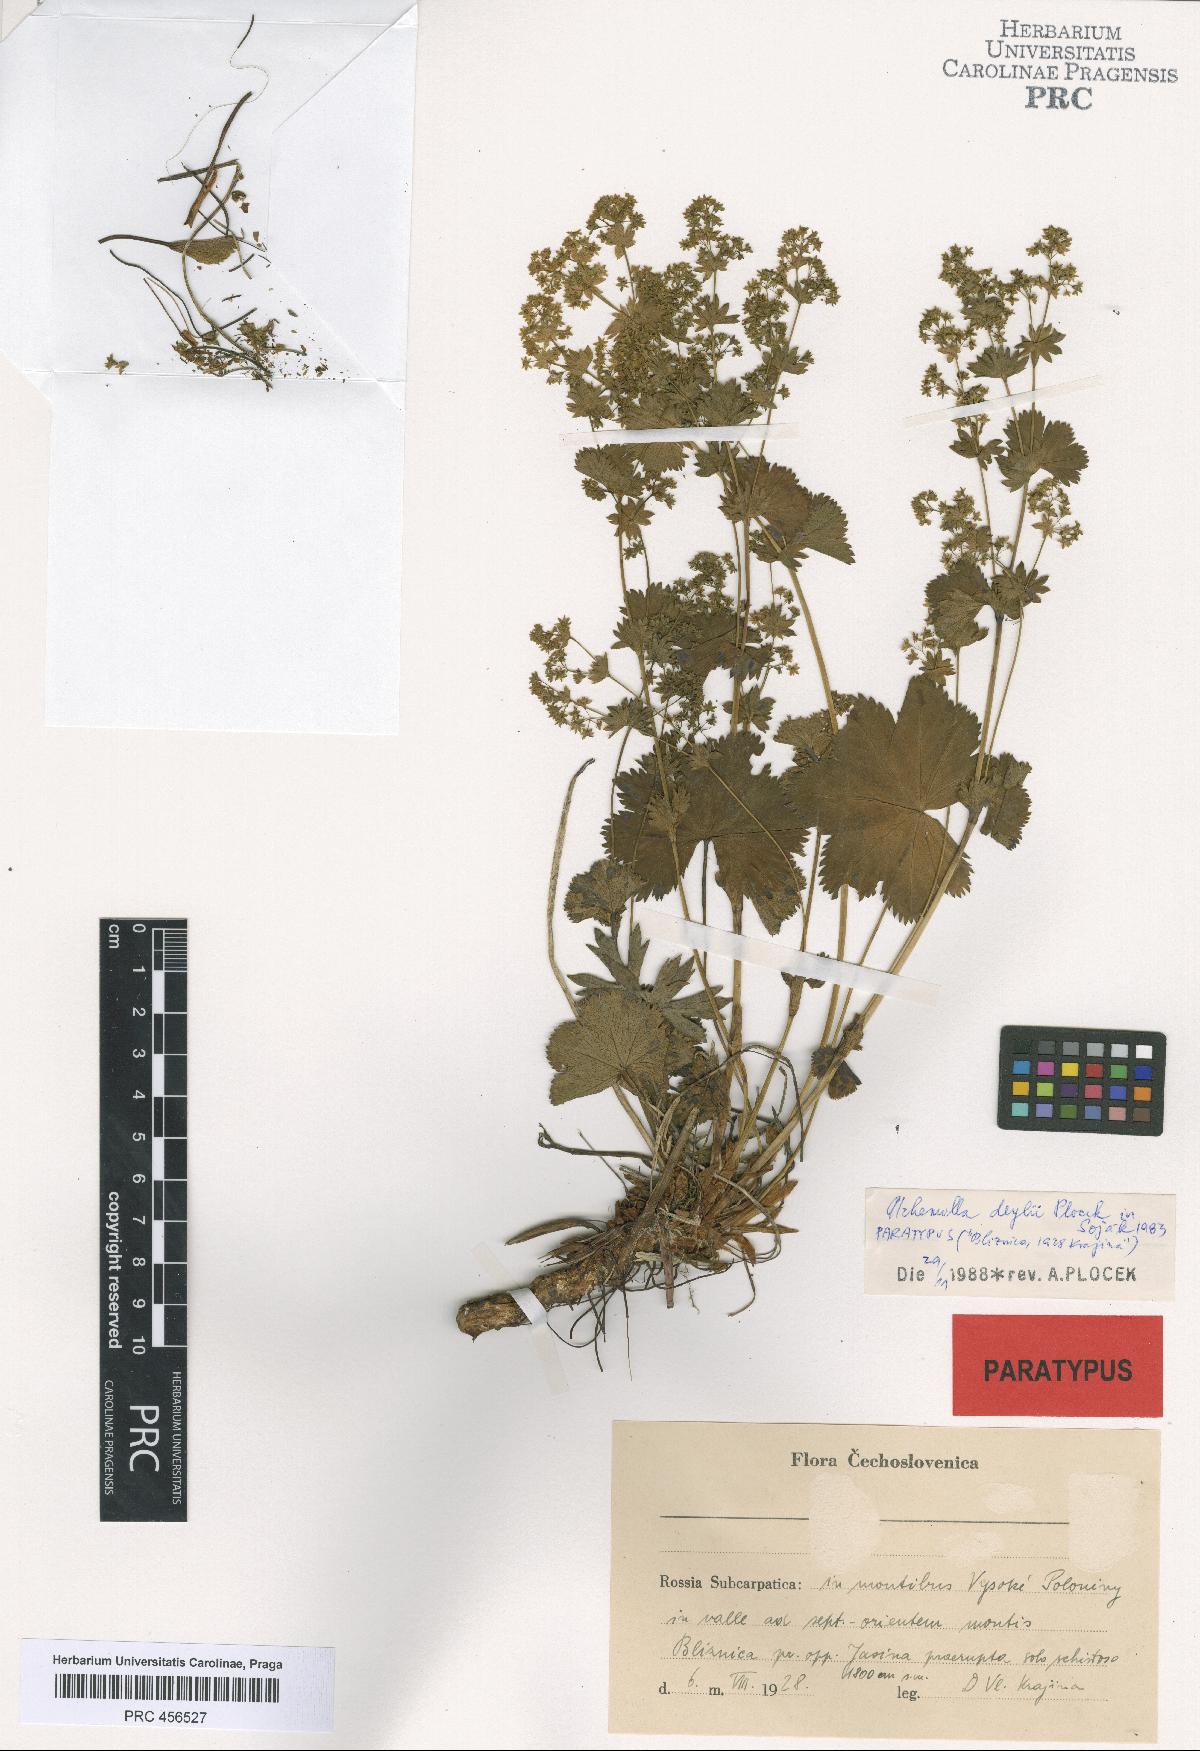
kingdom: Plantae
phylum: Tracheophyta
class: Magnoliopsida
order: Rosales
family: Rosaceae
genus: Alchemilla
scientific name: Alchemilla deylii
